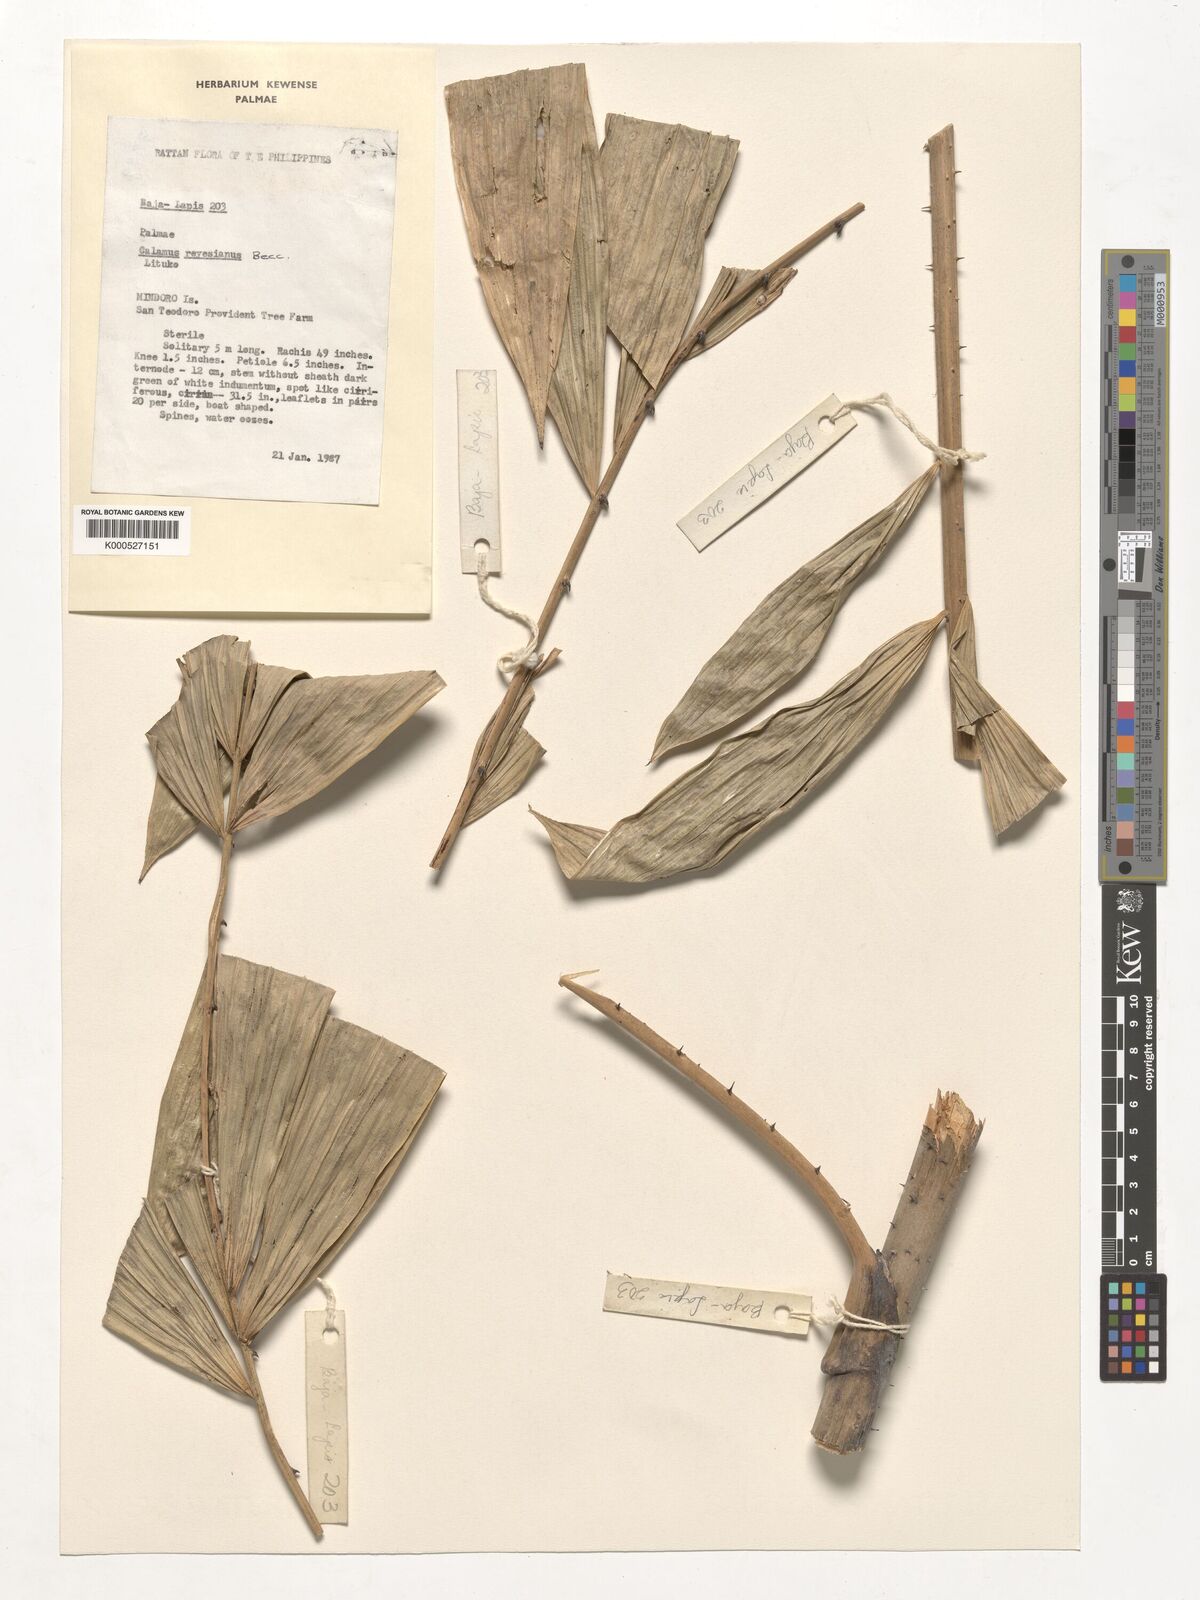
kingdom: Plantae
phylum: Tracheophyta
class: Liliopsida
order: Arecales
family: Arecaceae
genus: Calamus
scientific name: Calamus moseleyanus
